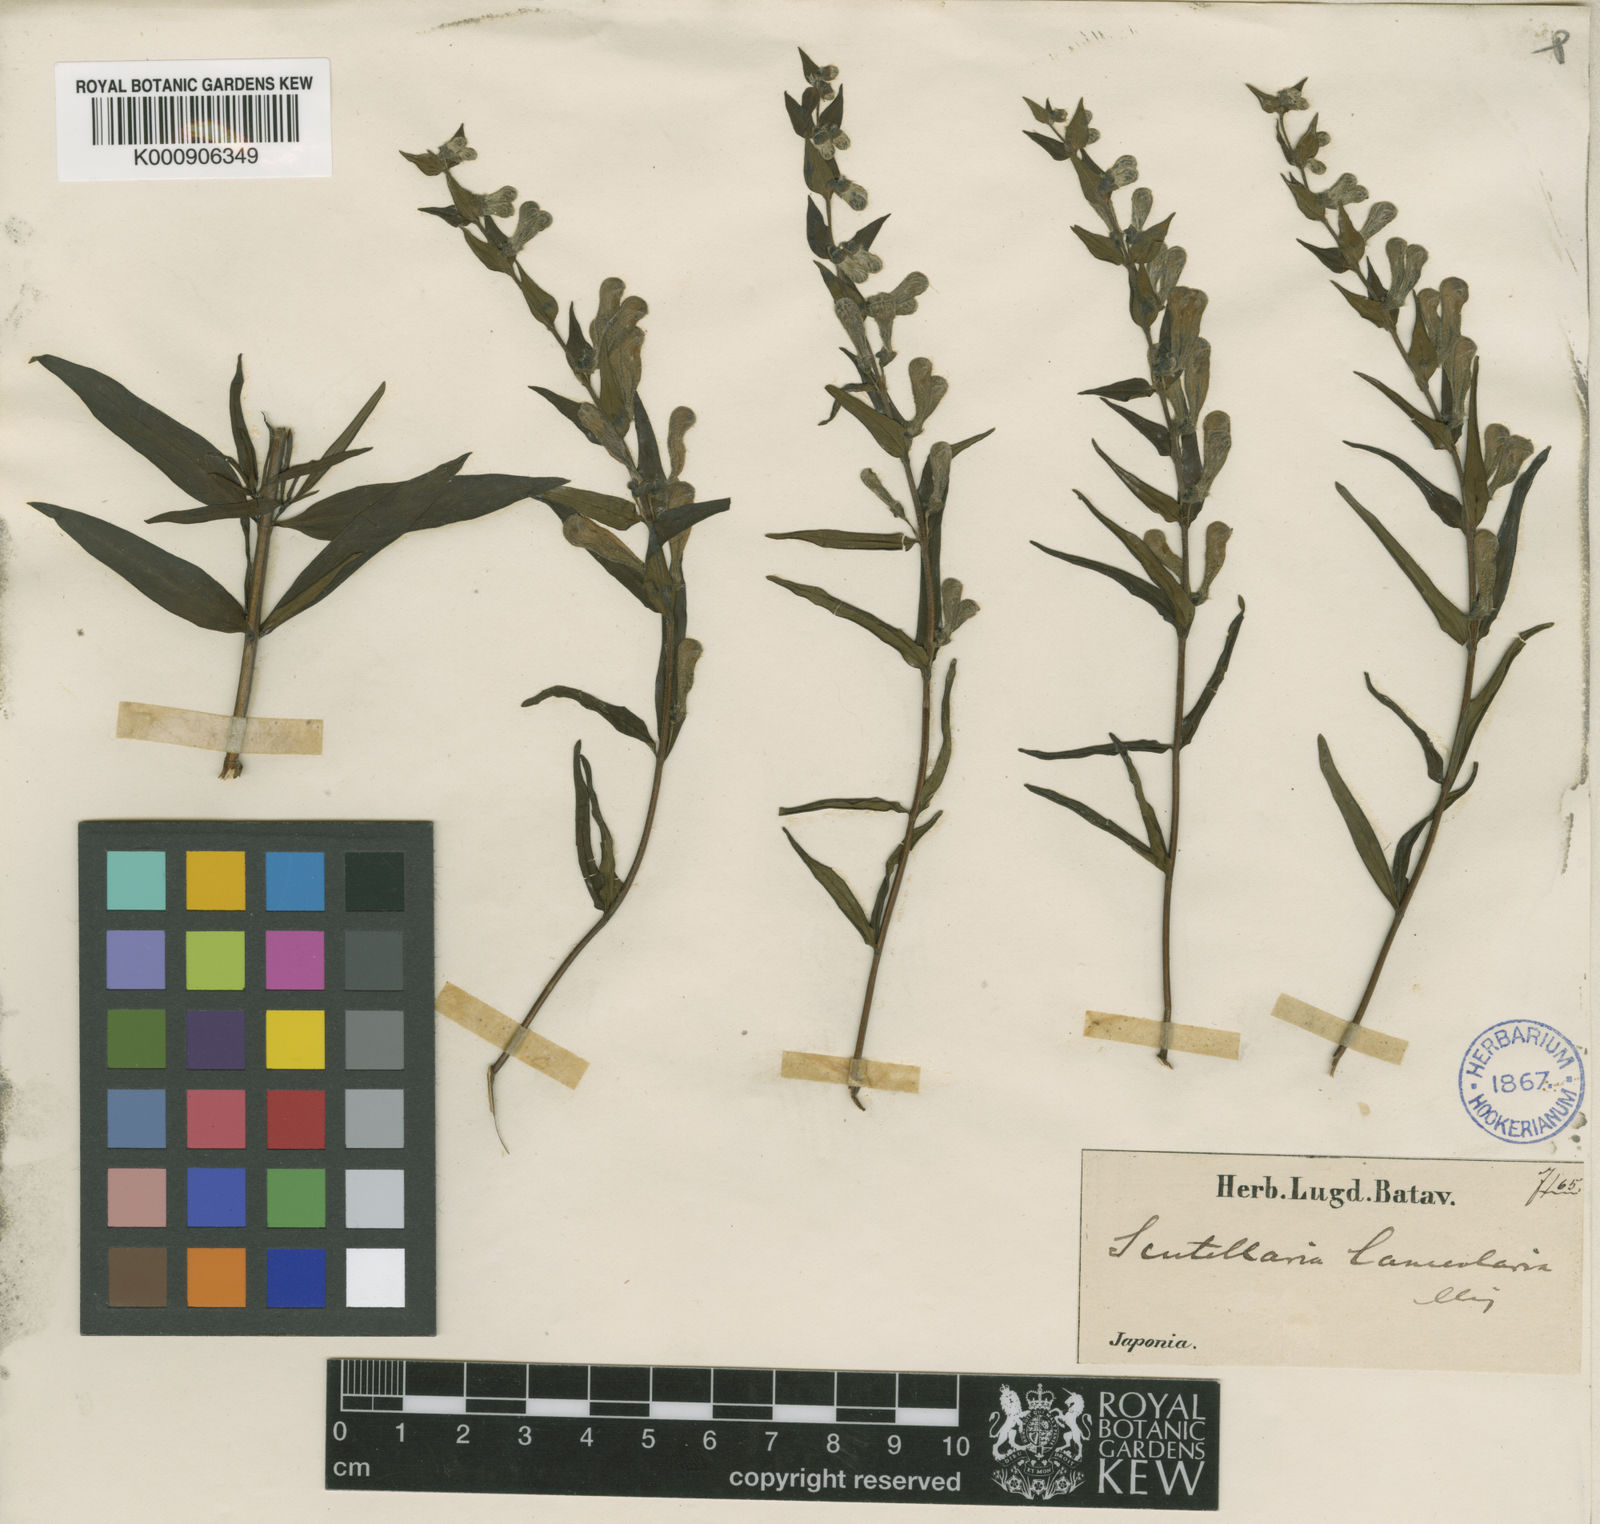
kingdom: Plantae
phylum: Tracheophyta
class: Magnoliopsida
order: Lamiales
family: Lamiaceae
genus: Scutellaria
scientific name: Scutellaria baicalensis
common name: Baikal skullcap
